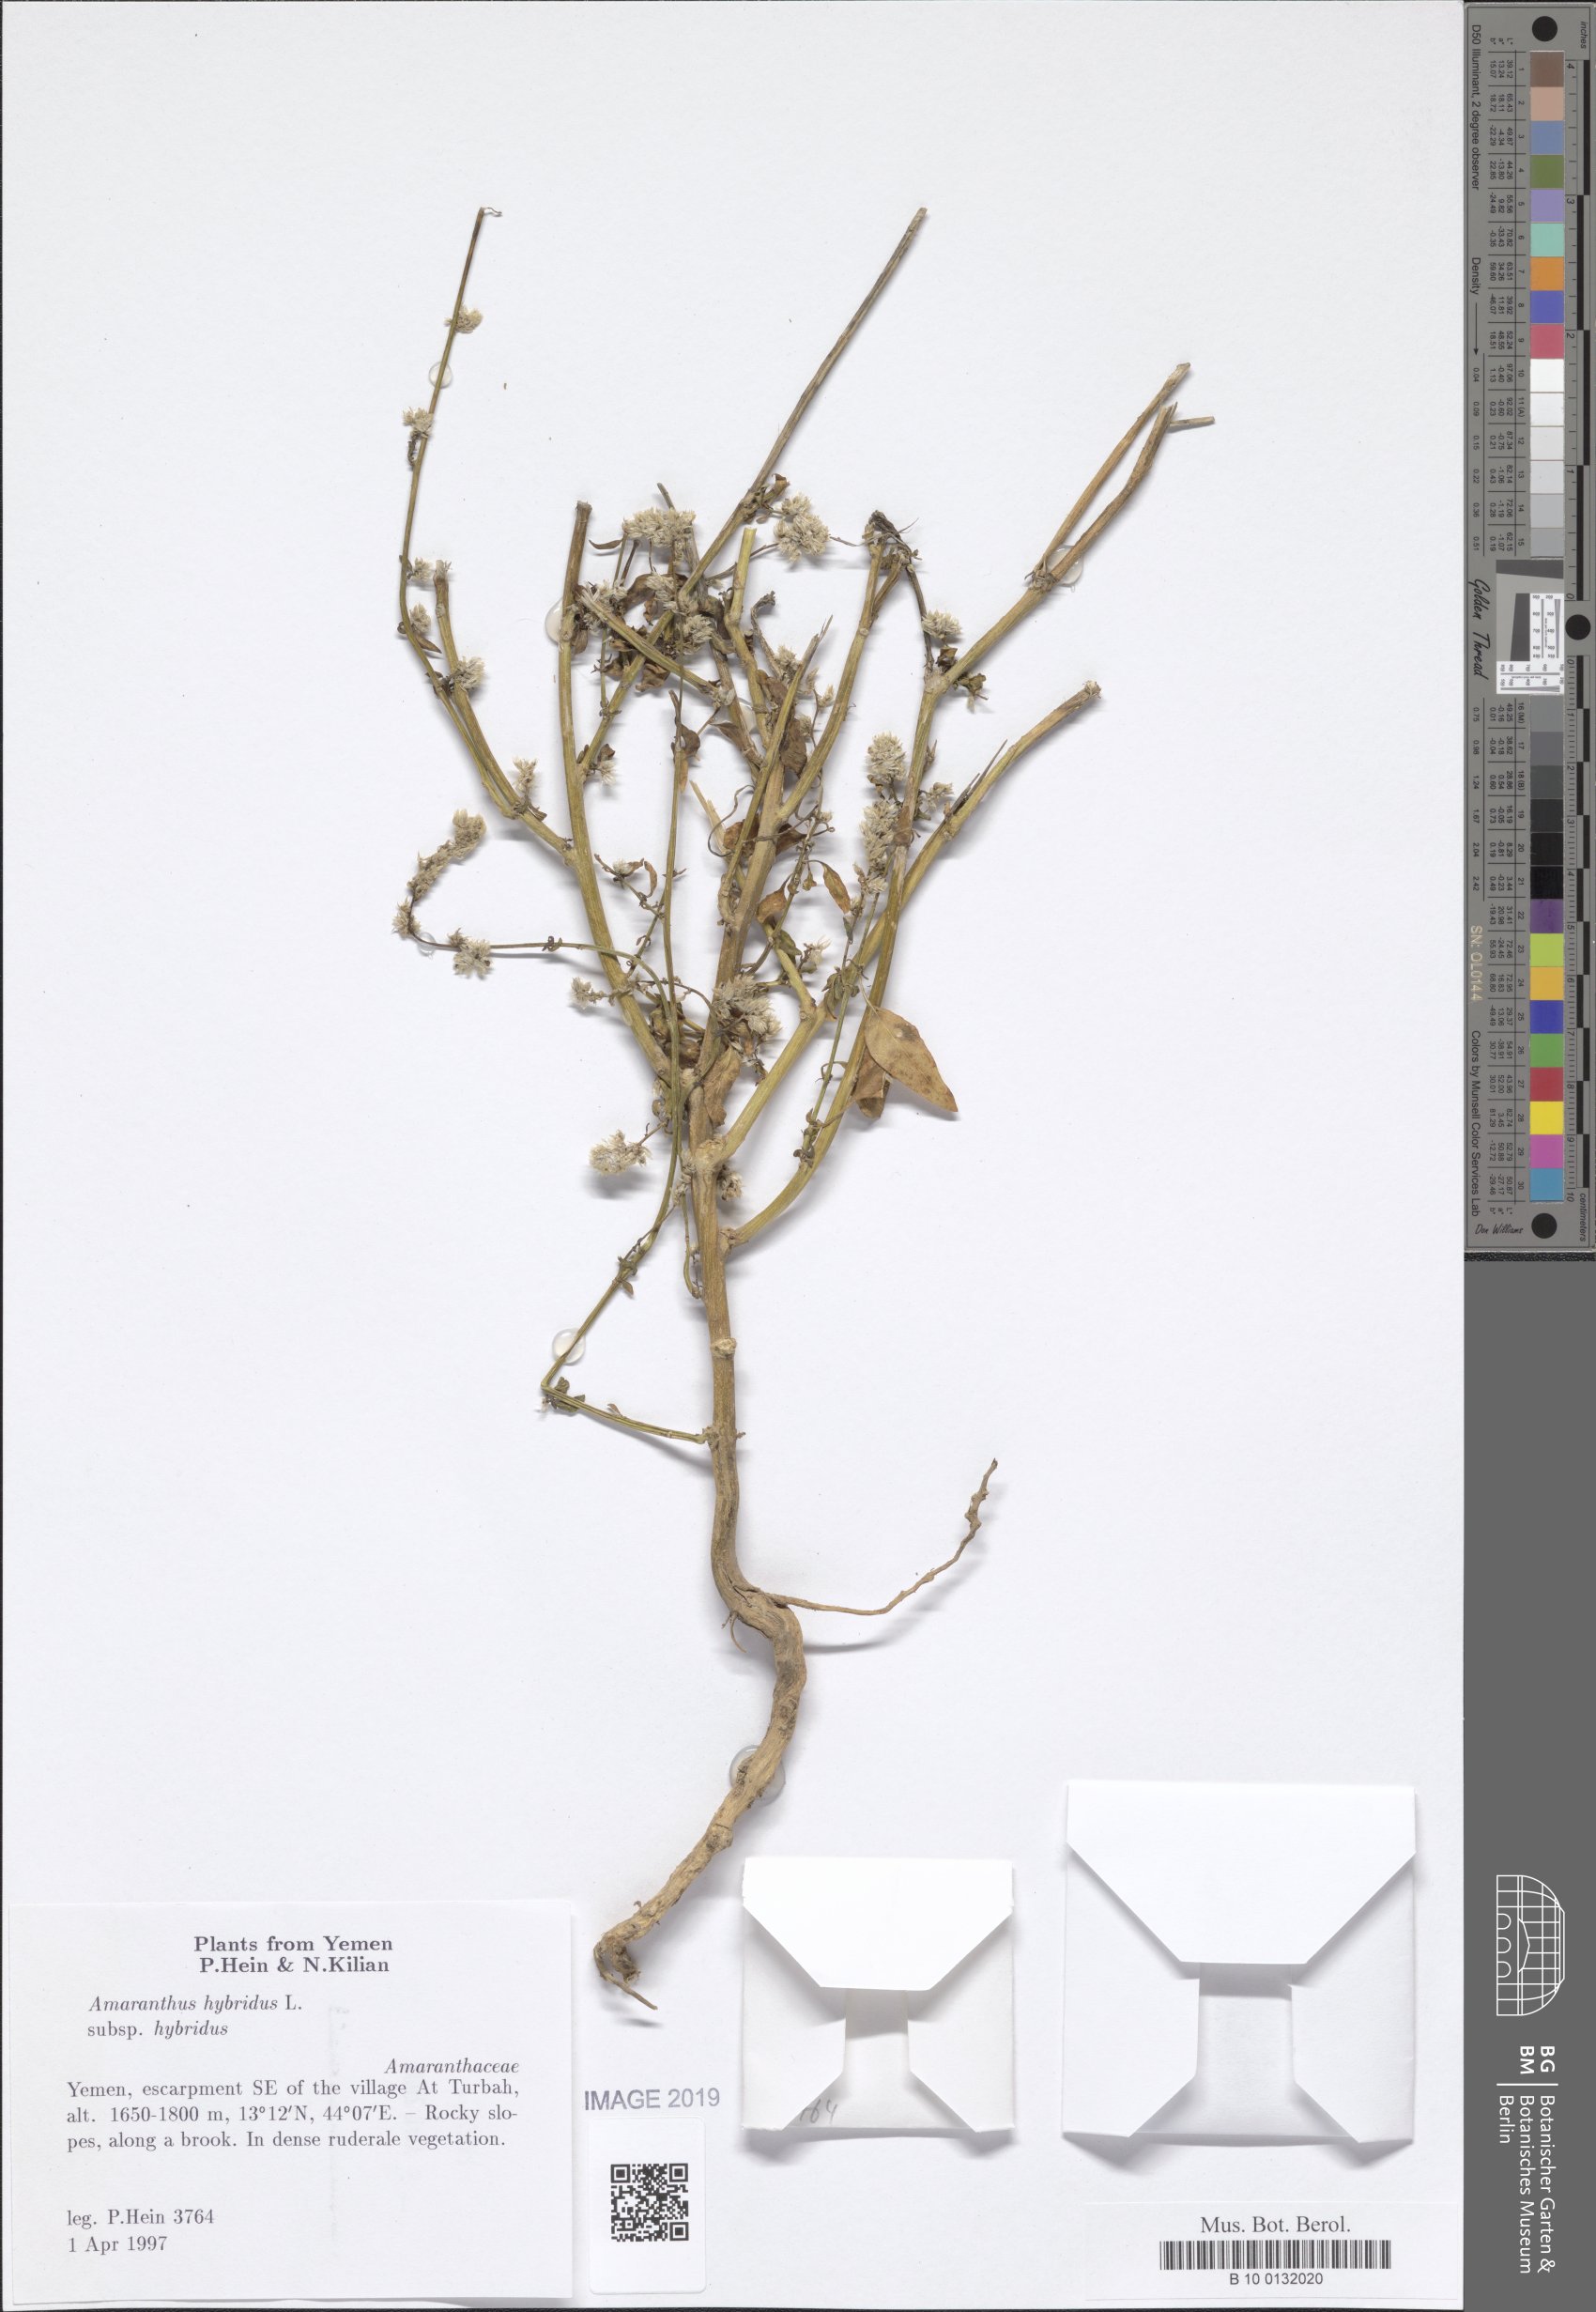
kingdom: Plantae
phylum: Tracheophyta
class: Magnoliopsida
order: Caryophyllales
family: Amaranthaceae
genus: Amaranthus
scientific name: Amaranthus hybridus
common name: Green amaranth
